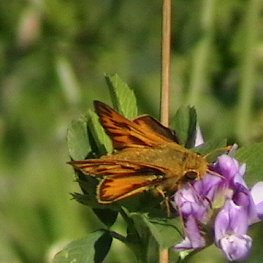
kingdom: Animalia
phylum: Arthropoda
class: Insecta
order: Lepidoptera
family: Hesperiidae
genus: Hylephila
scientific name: Hylephila phyleus
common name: Fiery Skipper
